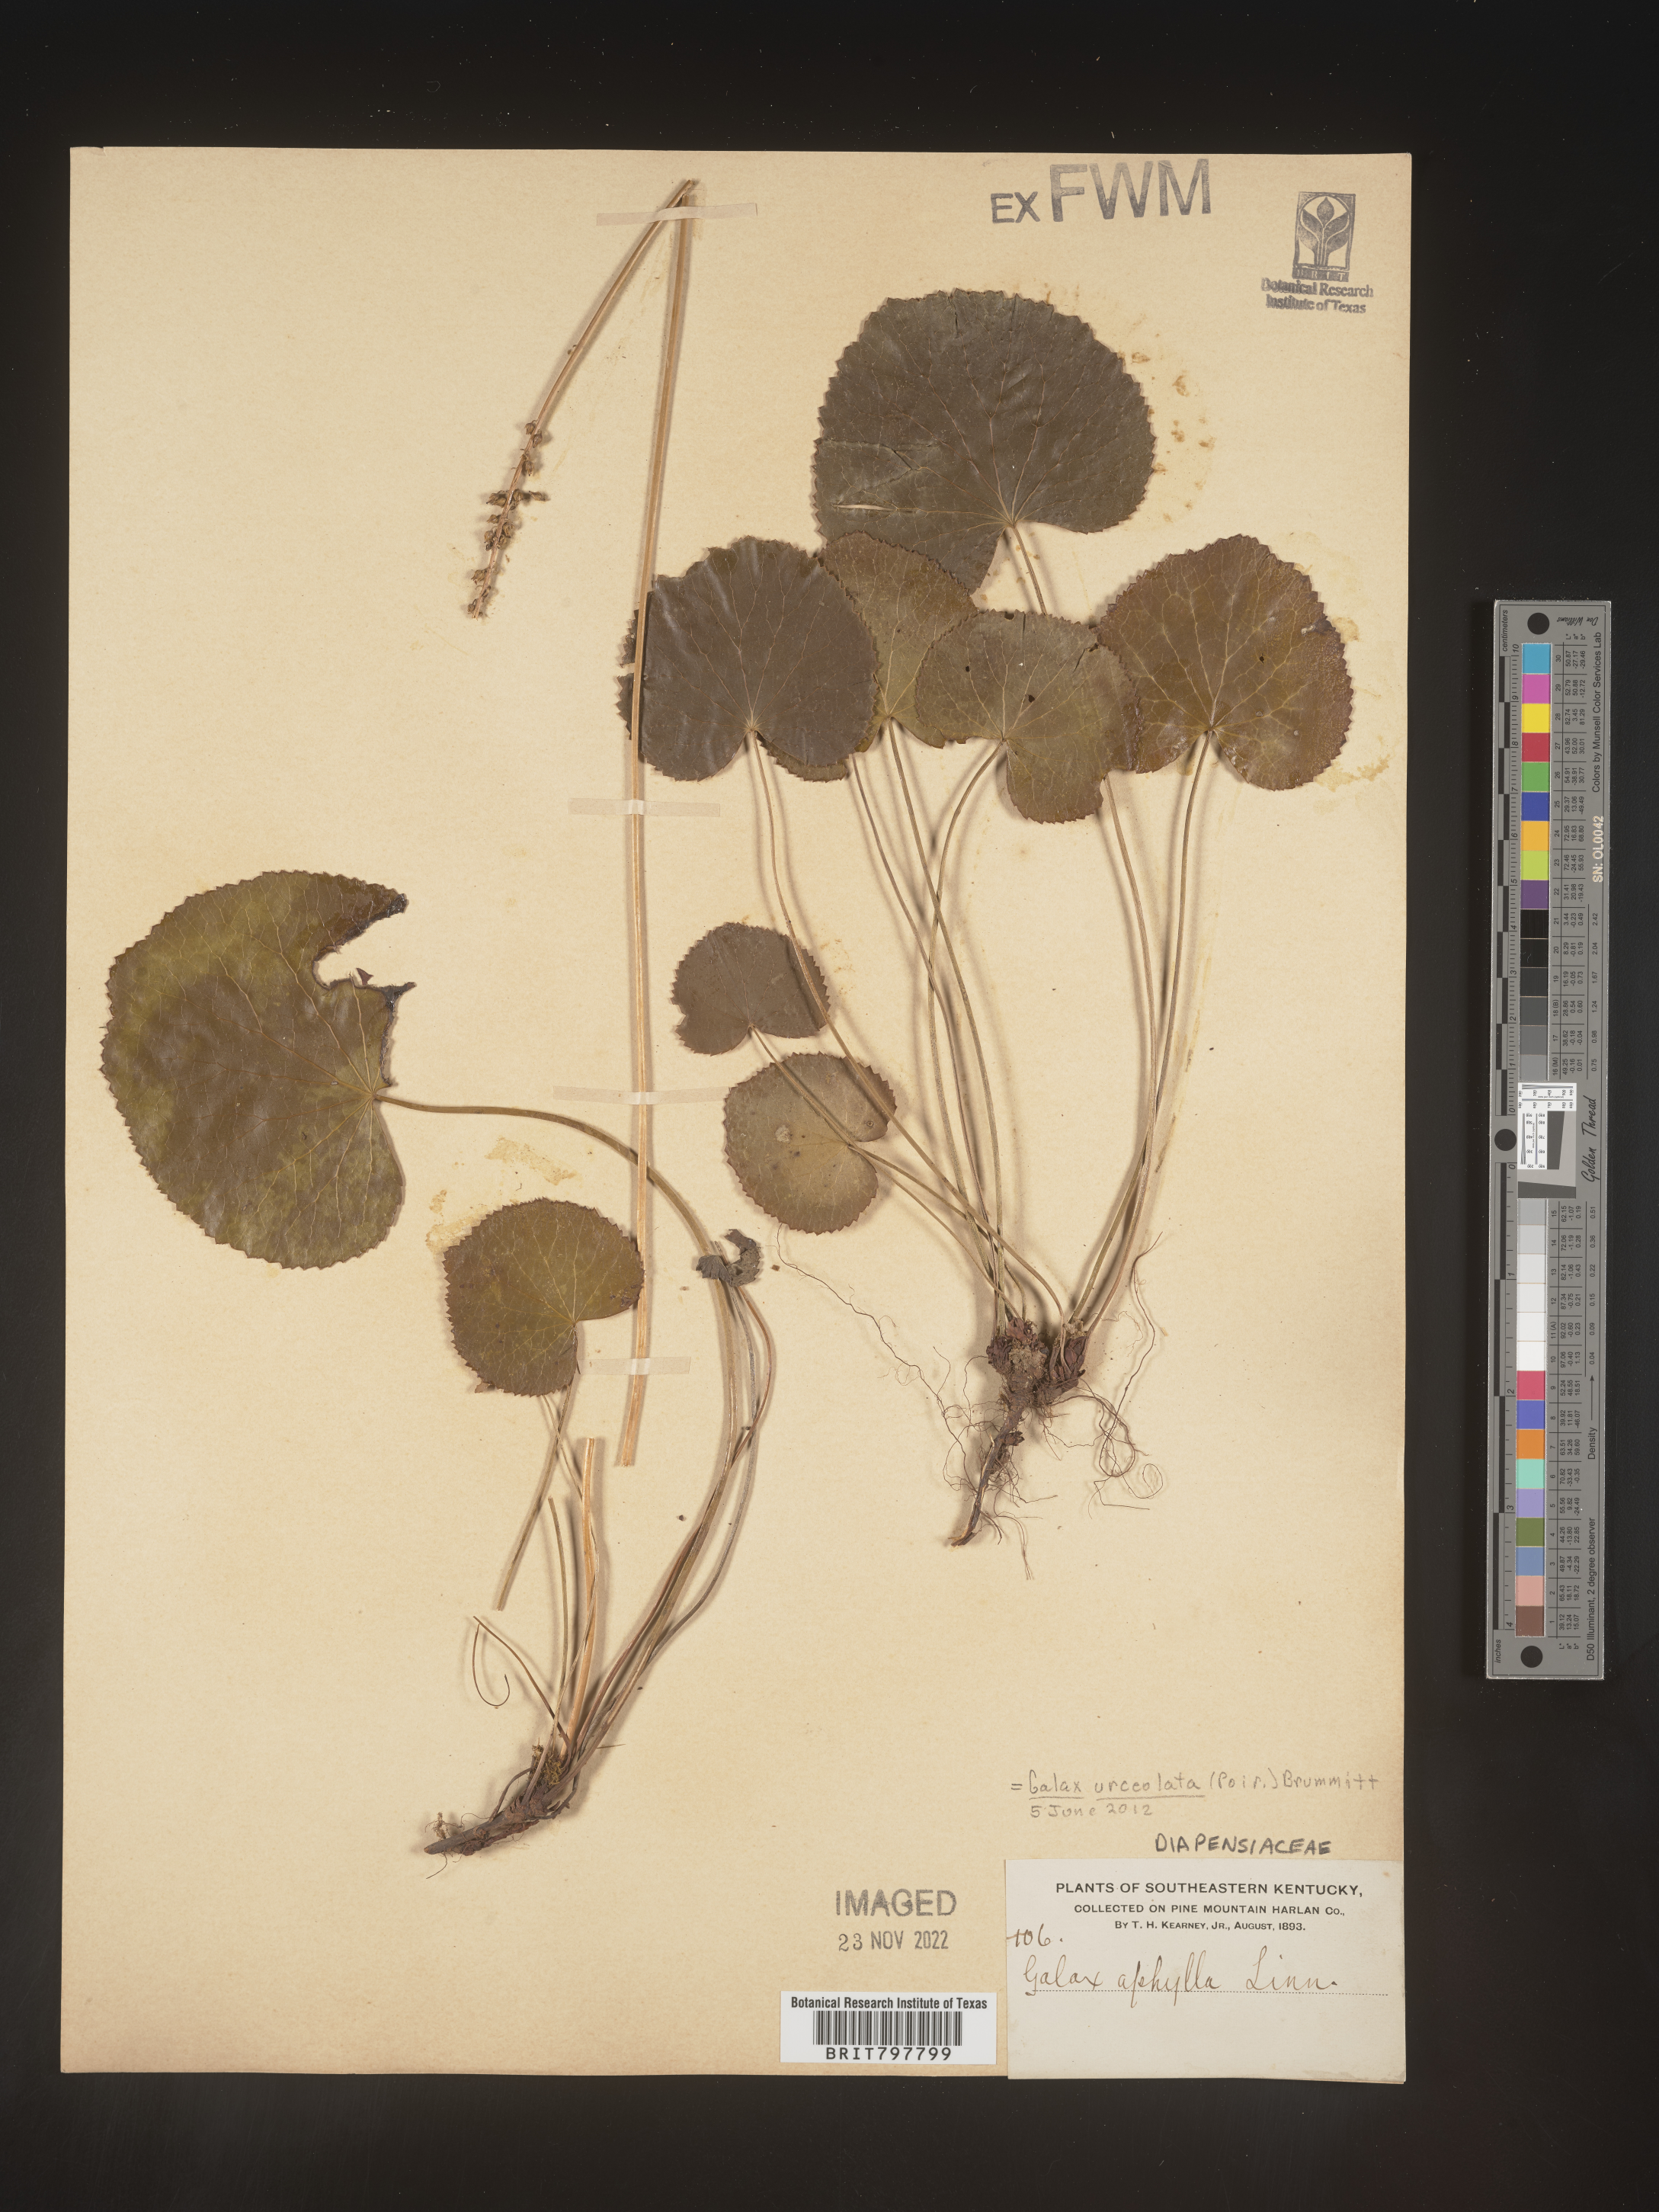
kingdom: Plantae
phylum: Tracheophyta
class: Magnoliopsida
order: Ericales
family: Diapensiaceae
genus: Galax
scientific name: Galax
